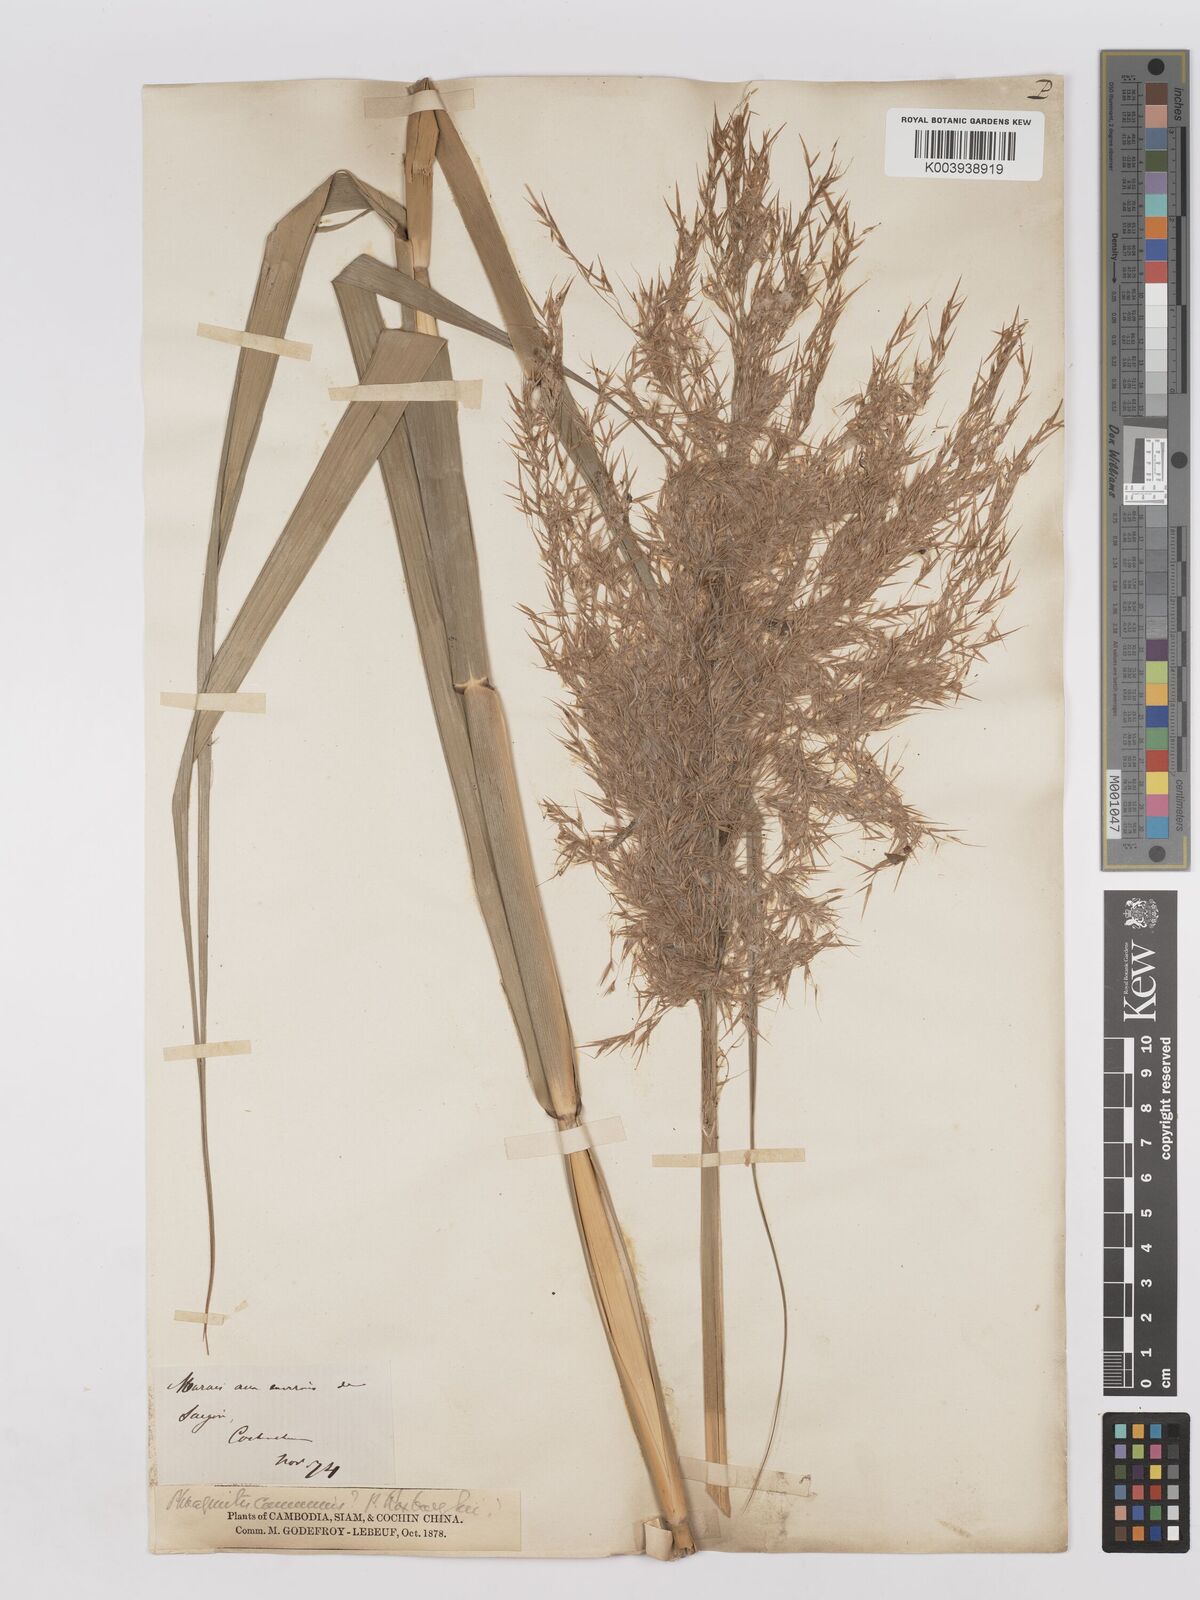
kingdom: Plantae
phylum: Tracheophyta
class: Liliopsida
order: Poales
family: Poaceae
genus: Phragmites
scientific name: Phragmites karka
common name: Tropical reed
